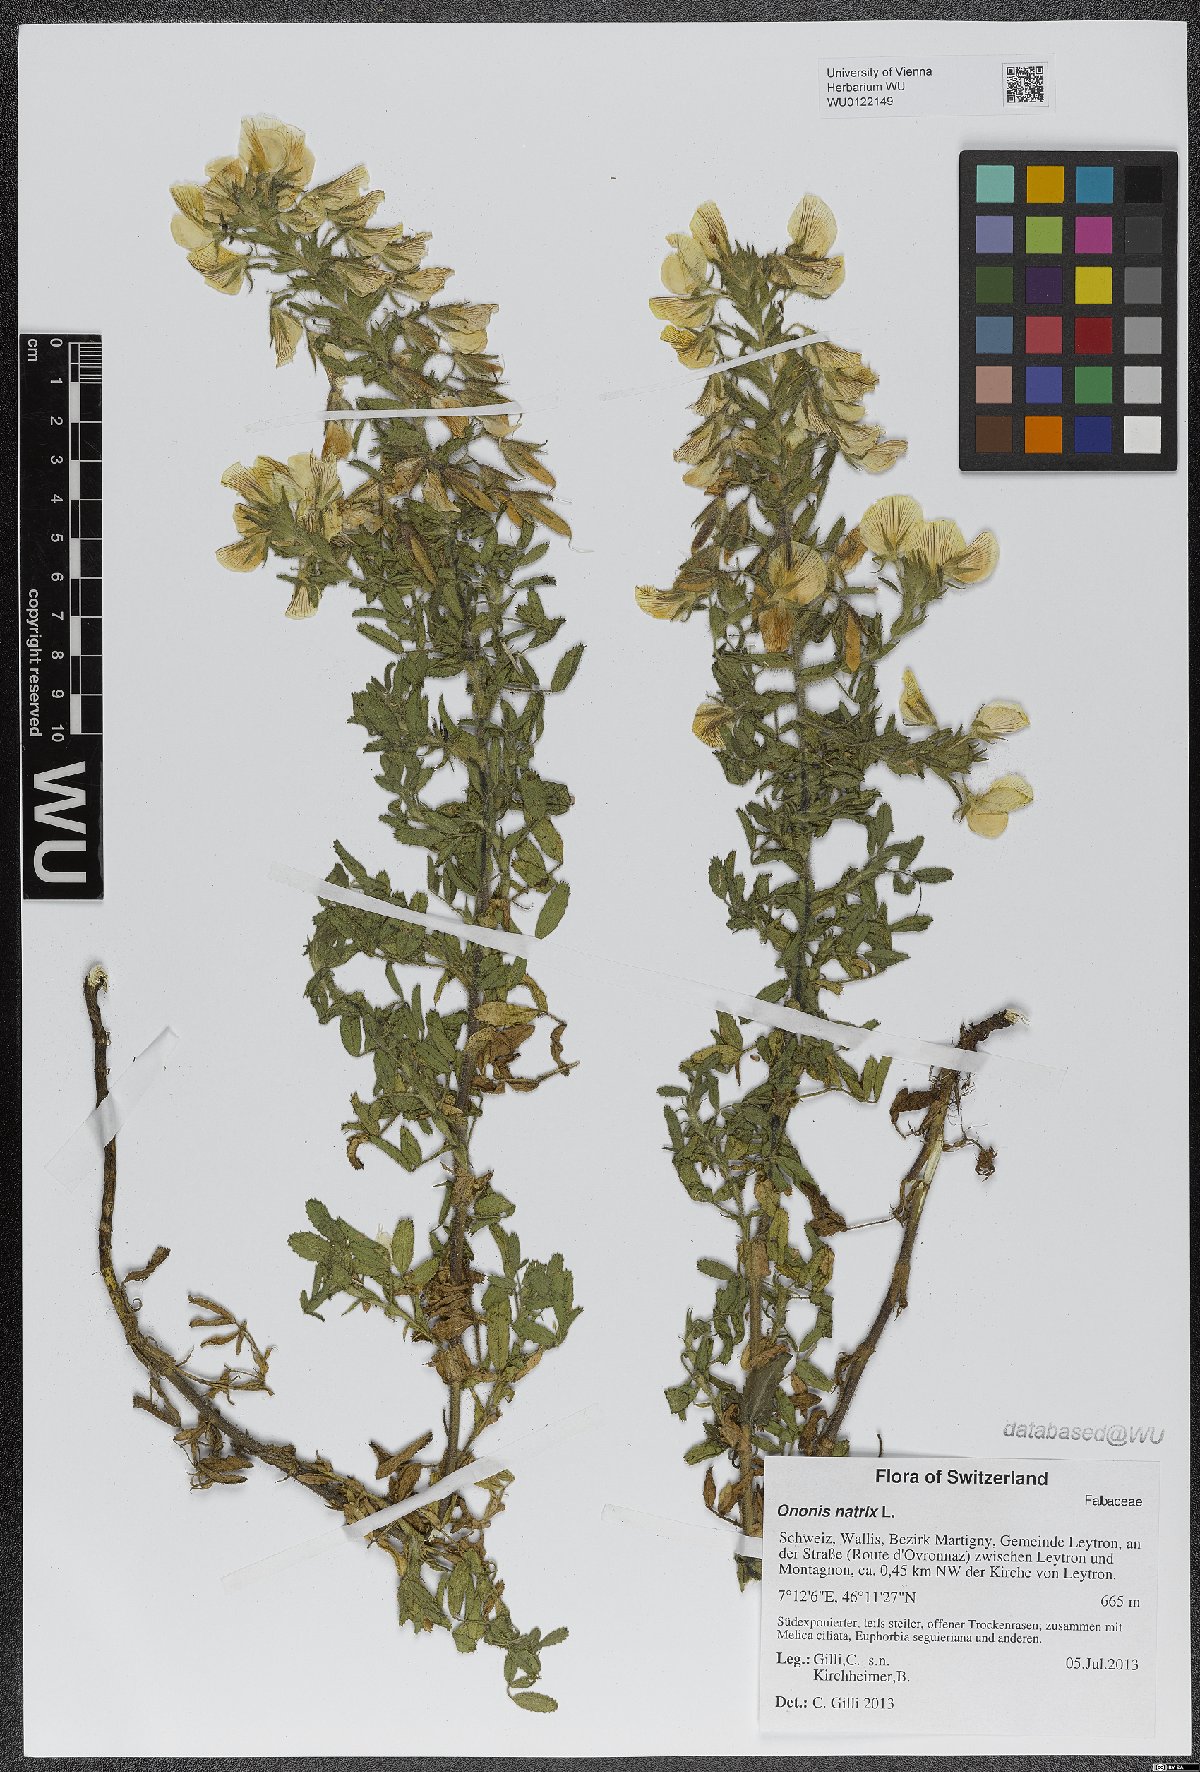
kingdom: Plantae
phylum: Tracheophyta
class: Magnoliopsida
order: Fabales
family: Fabaceae
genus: Ononis
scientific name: Ononis natrix
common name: Yellow restharrow
